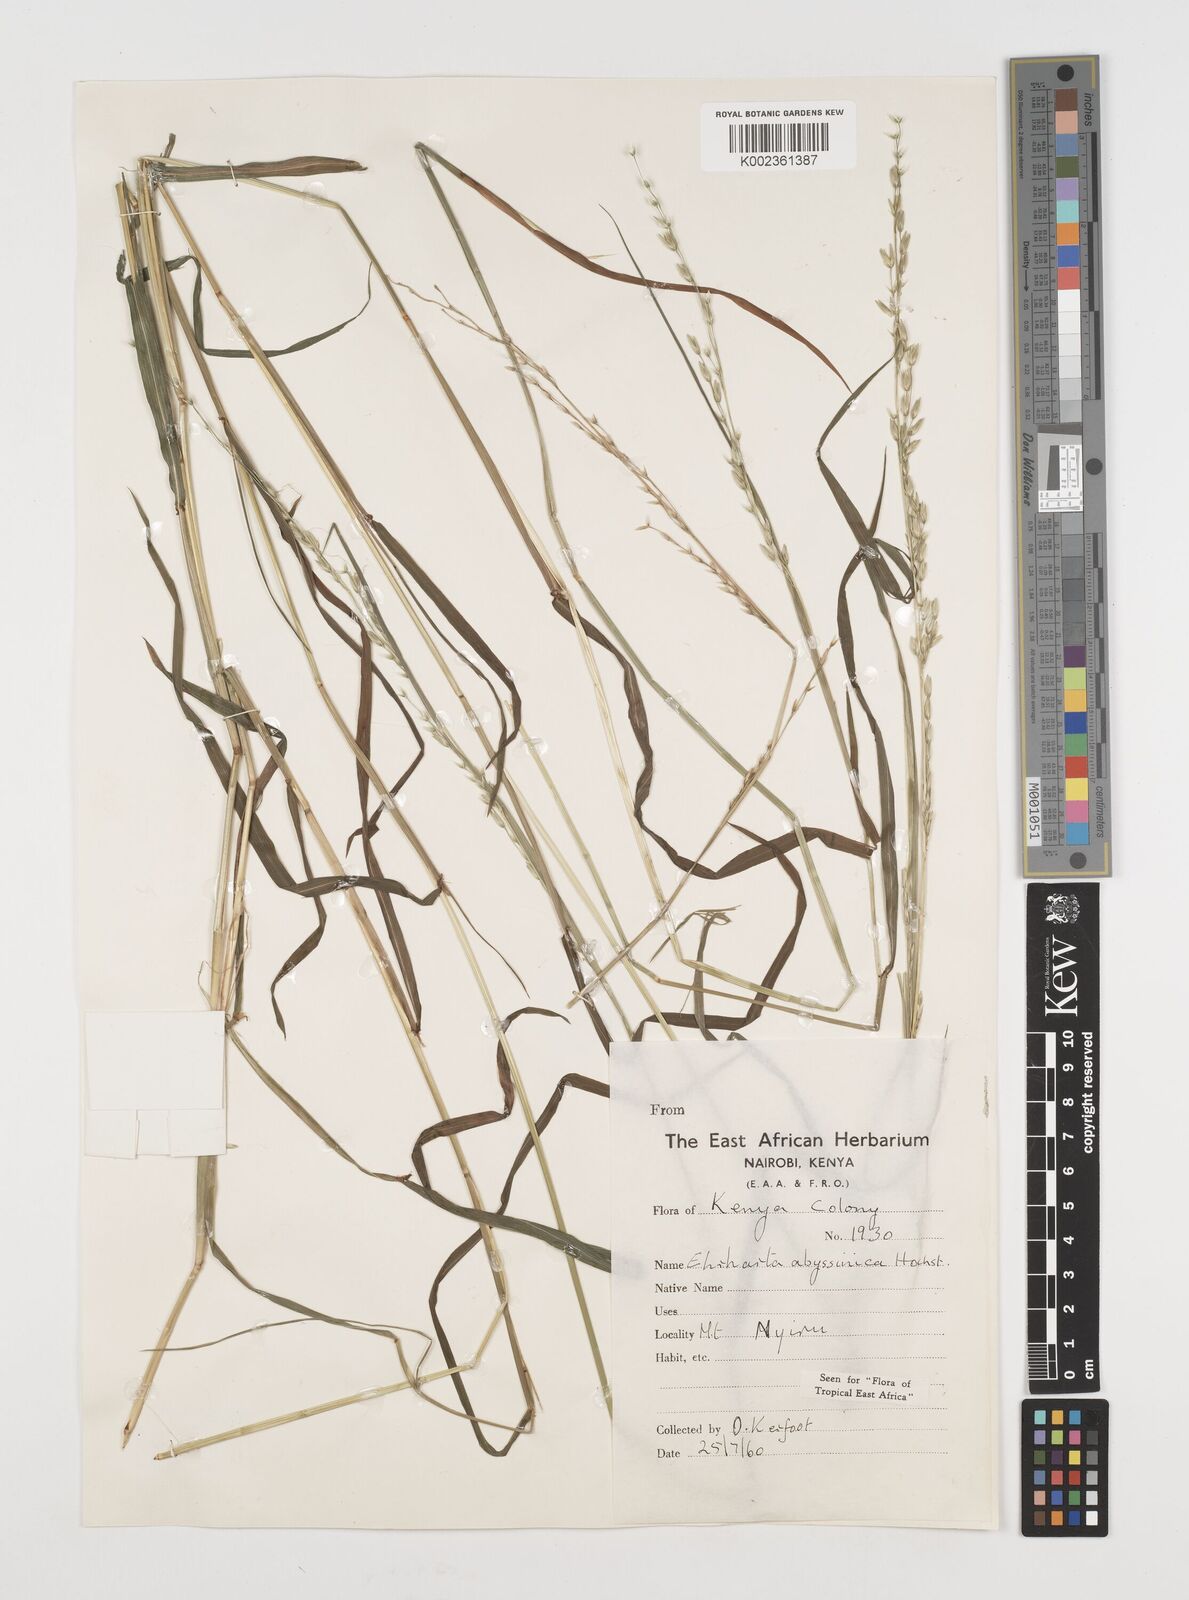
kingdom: Plantae
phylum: Tracheophyta
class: Liliopsida
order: Poales
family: Poaceae
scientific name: Poaceae
